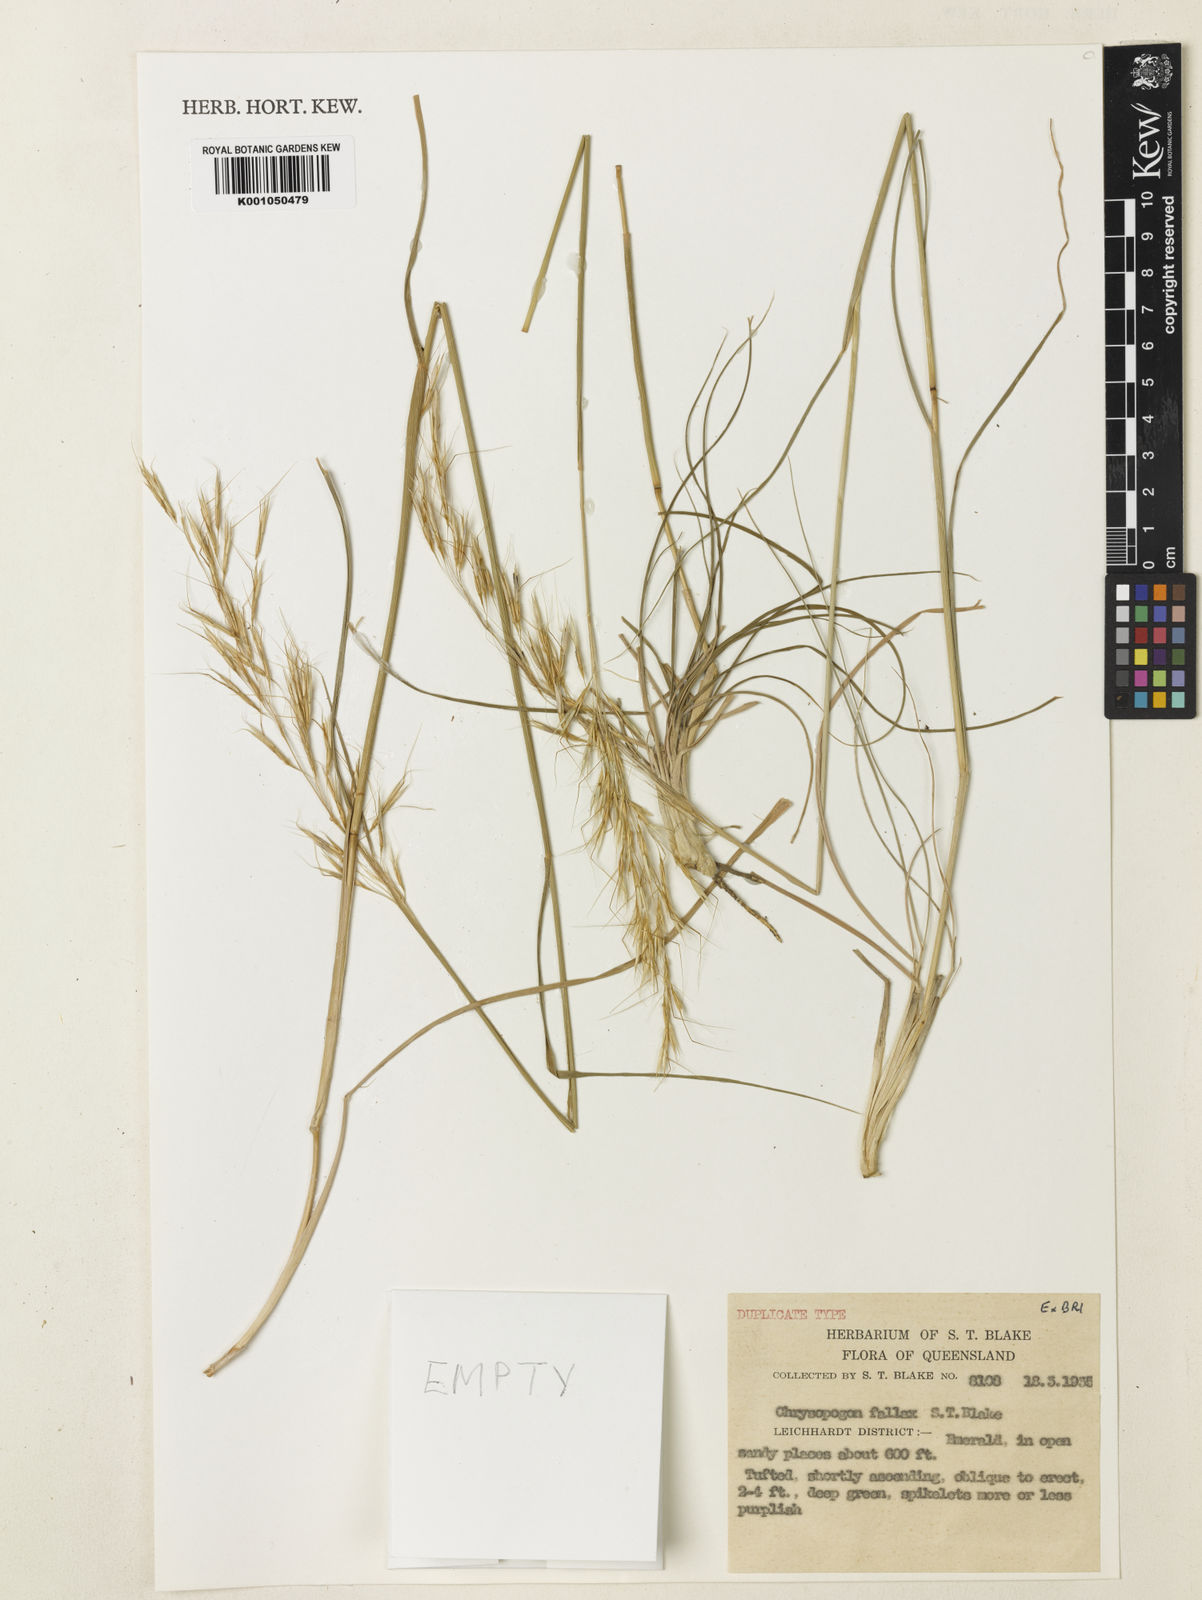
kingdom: Plantae
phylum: Tracheophyta
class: Liliopsida
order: Poales
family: Poaceae
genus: Chrysopogon
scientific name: Chrysopogon fallax
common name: Golden beard grass
